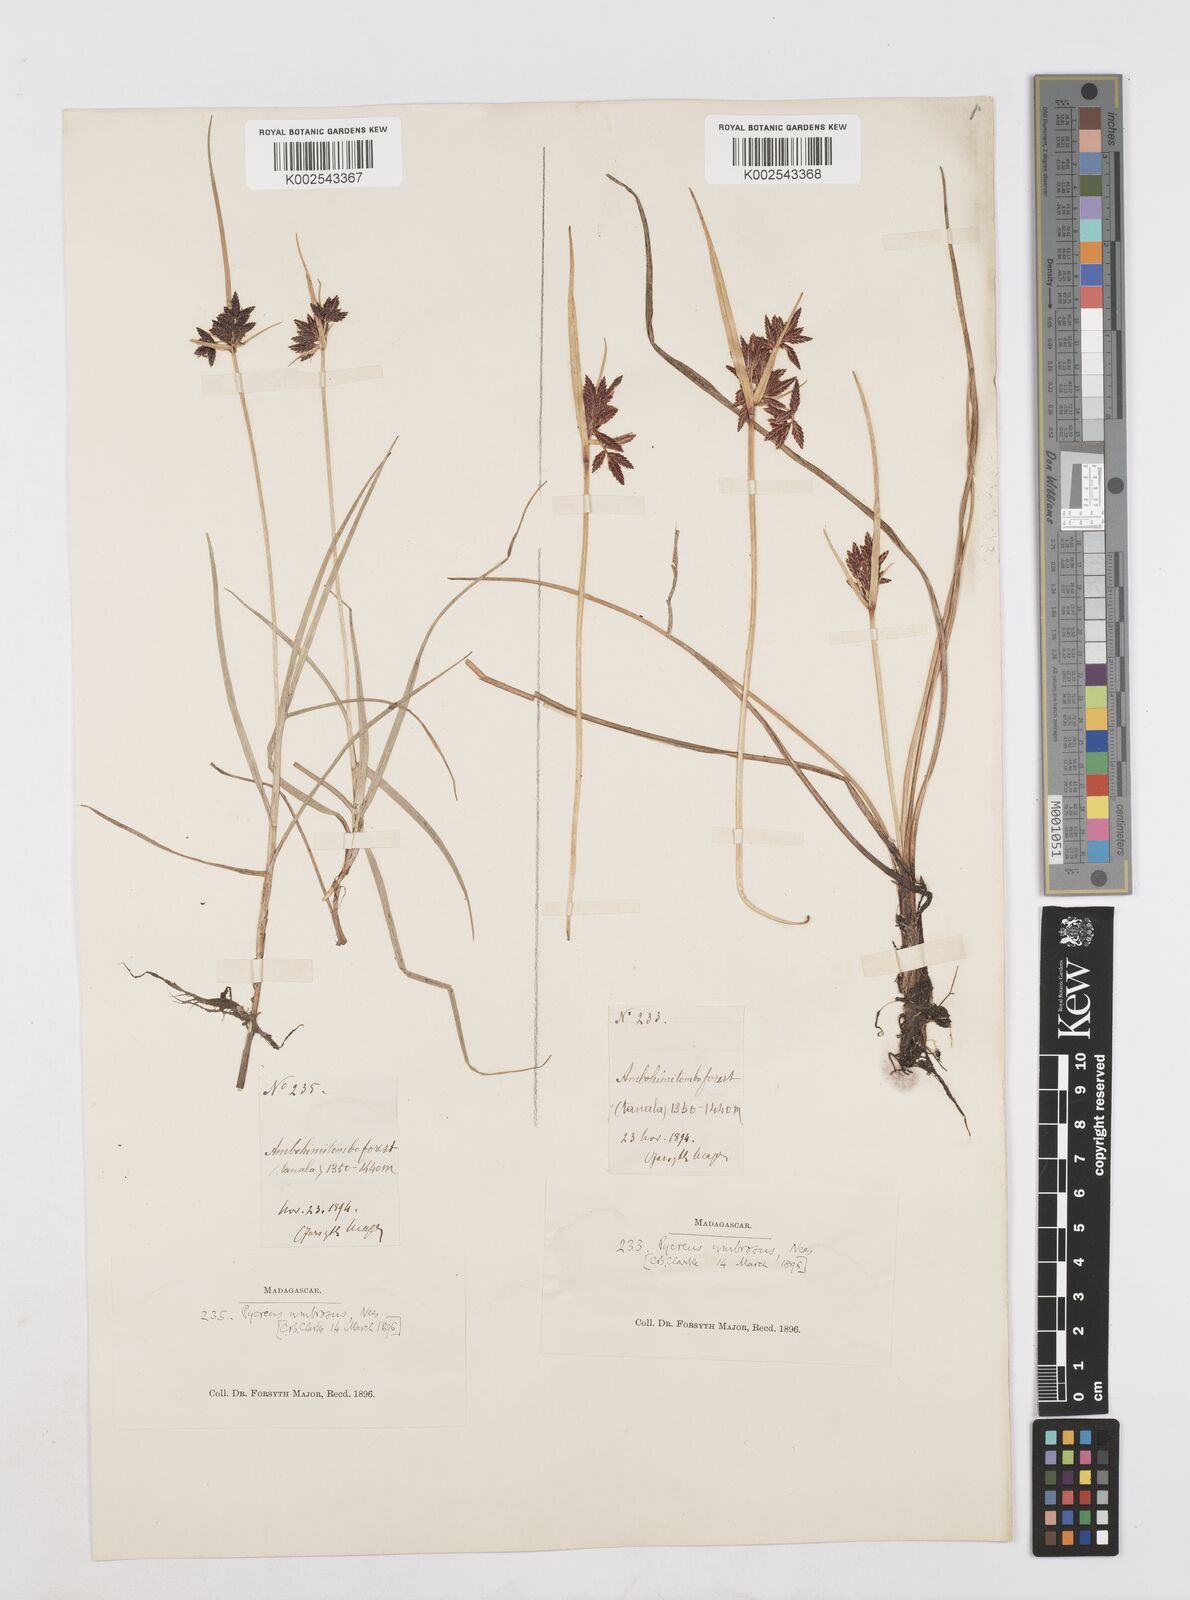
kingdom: Plantae
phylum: Tracheophyta
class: Liliopsida
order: Poales
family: Cyperaceae
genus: Cyperus
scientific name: Cyperus nitidus
